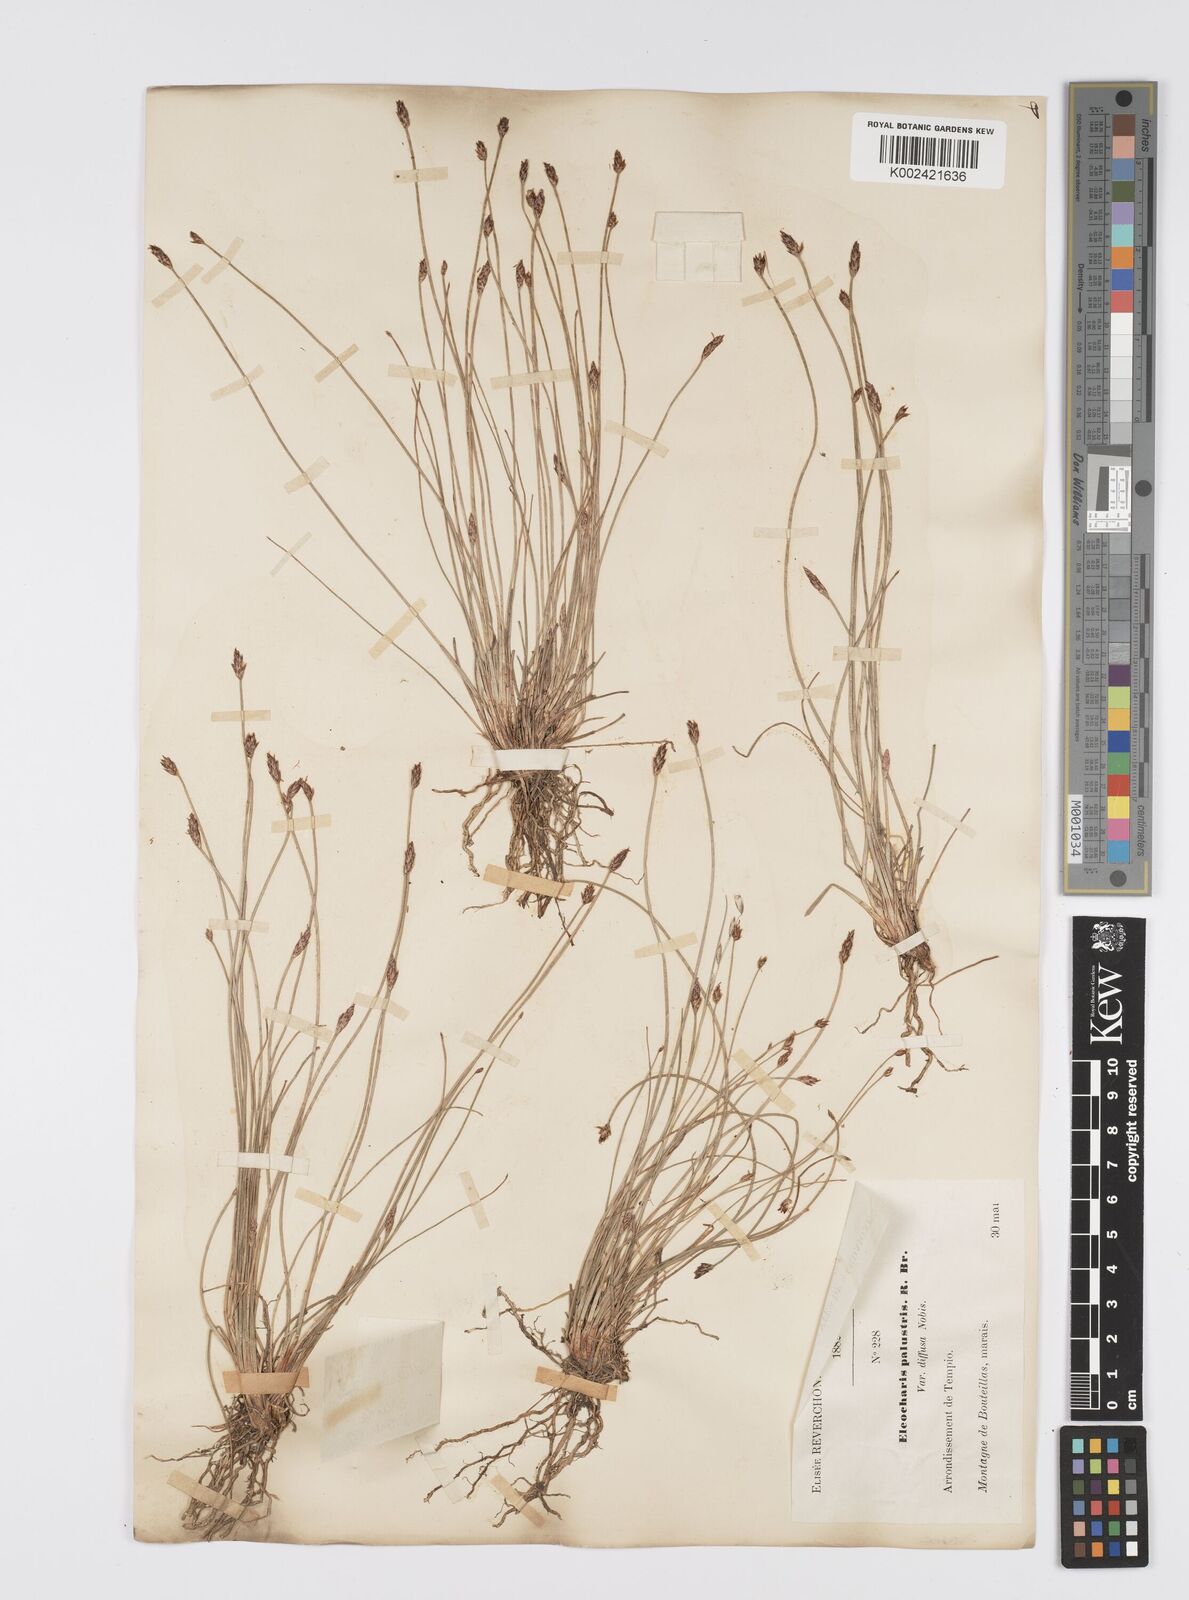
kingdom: Plantae
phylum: Tracheophyta
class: Liliopsida
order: Poales
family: Cyperaceae
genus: Eleocharis
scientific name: Eleocharis multicaulis
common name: Many-stalked spike-rush
